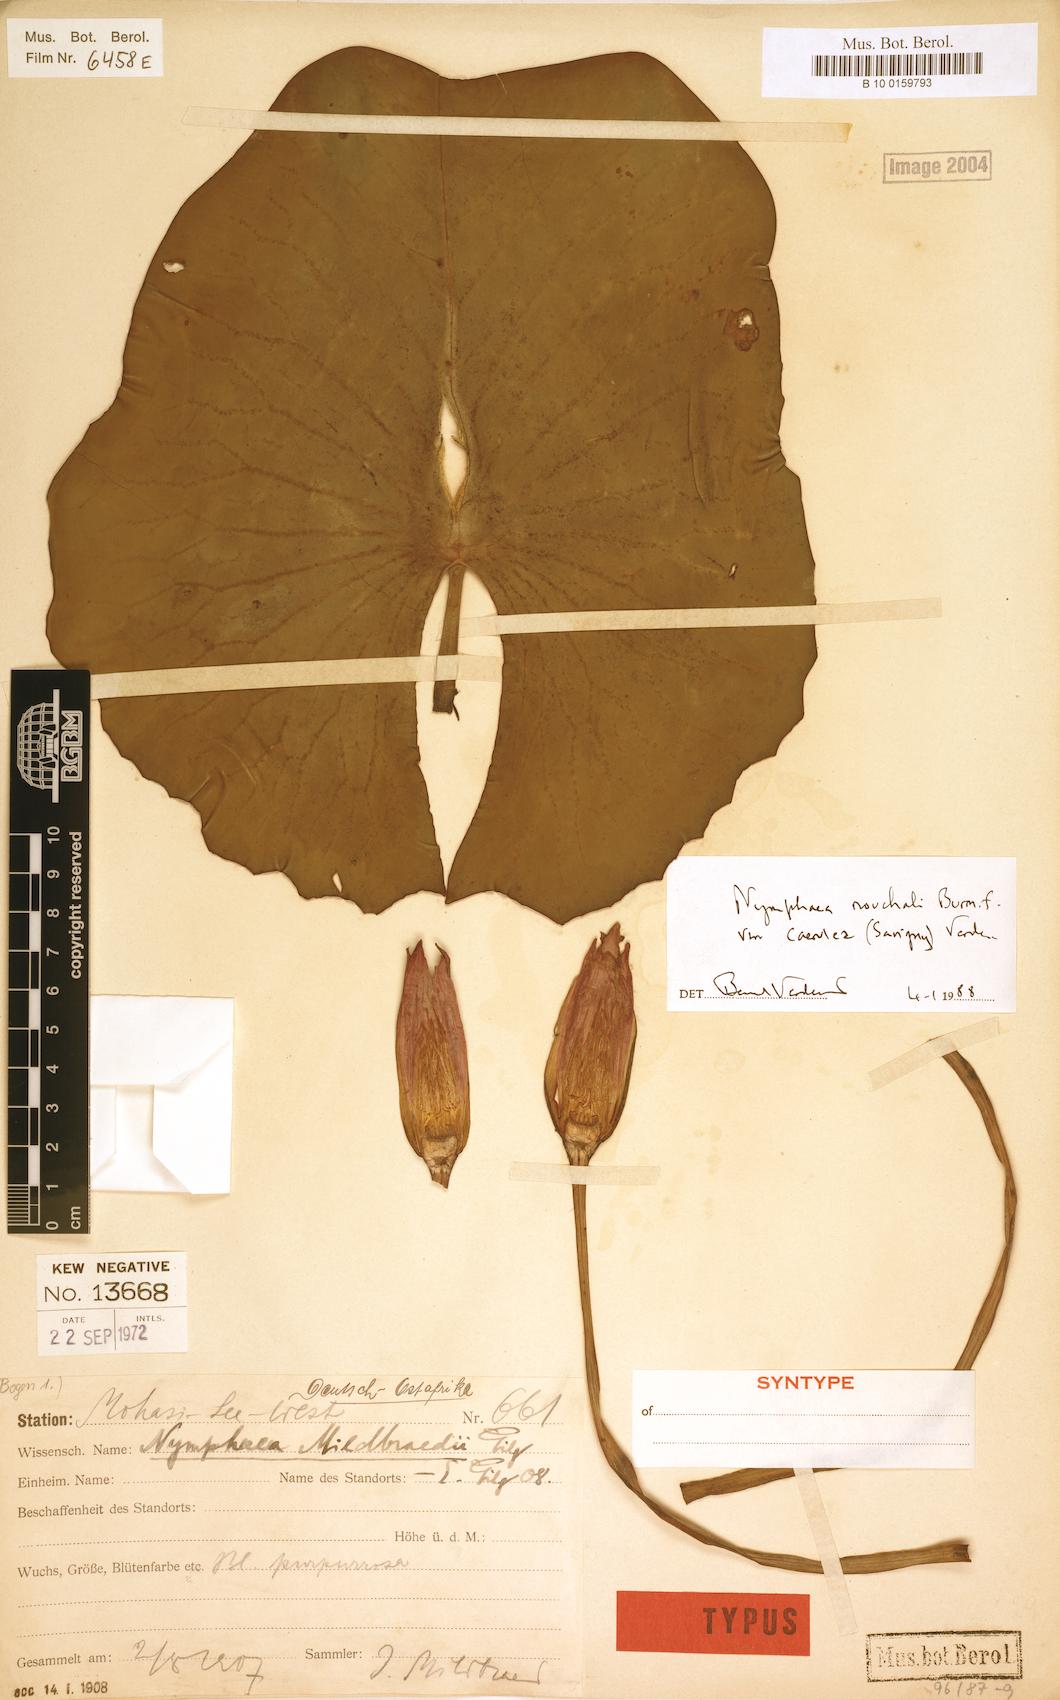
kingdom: Plantae
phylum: Tracheophyta
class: Magnoliopsida
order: Nymphaeales
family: Nymphaeaceae
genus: Nymphaea
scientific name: Nymphaea nouchali
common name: Blue lotus
